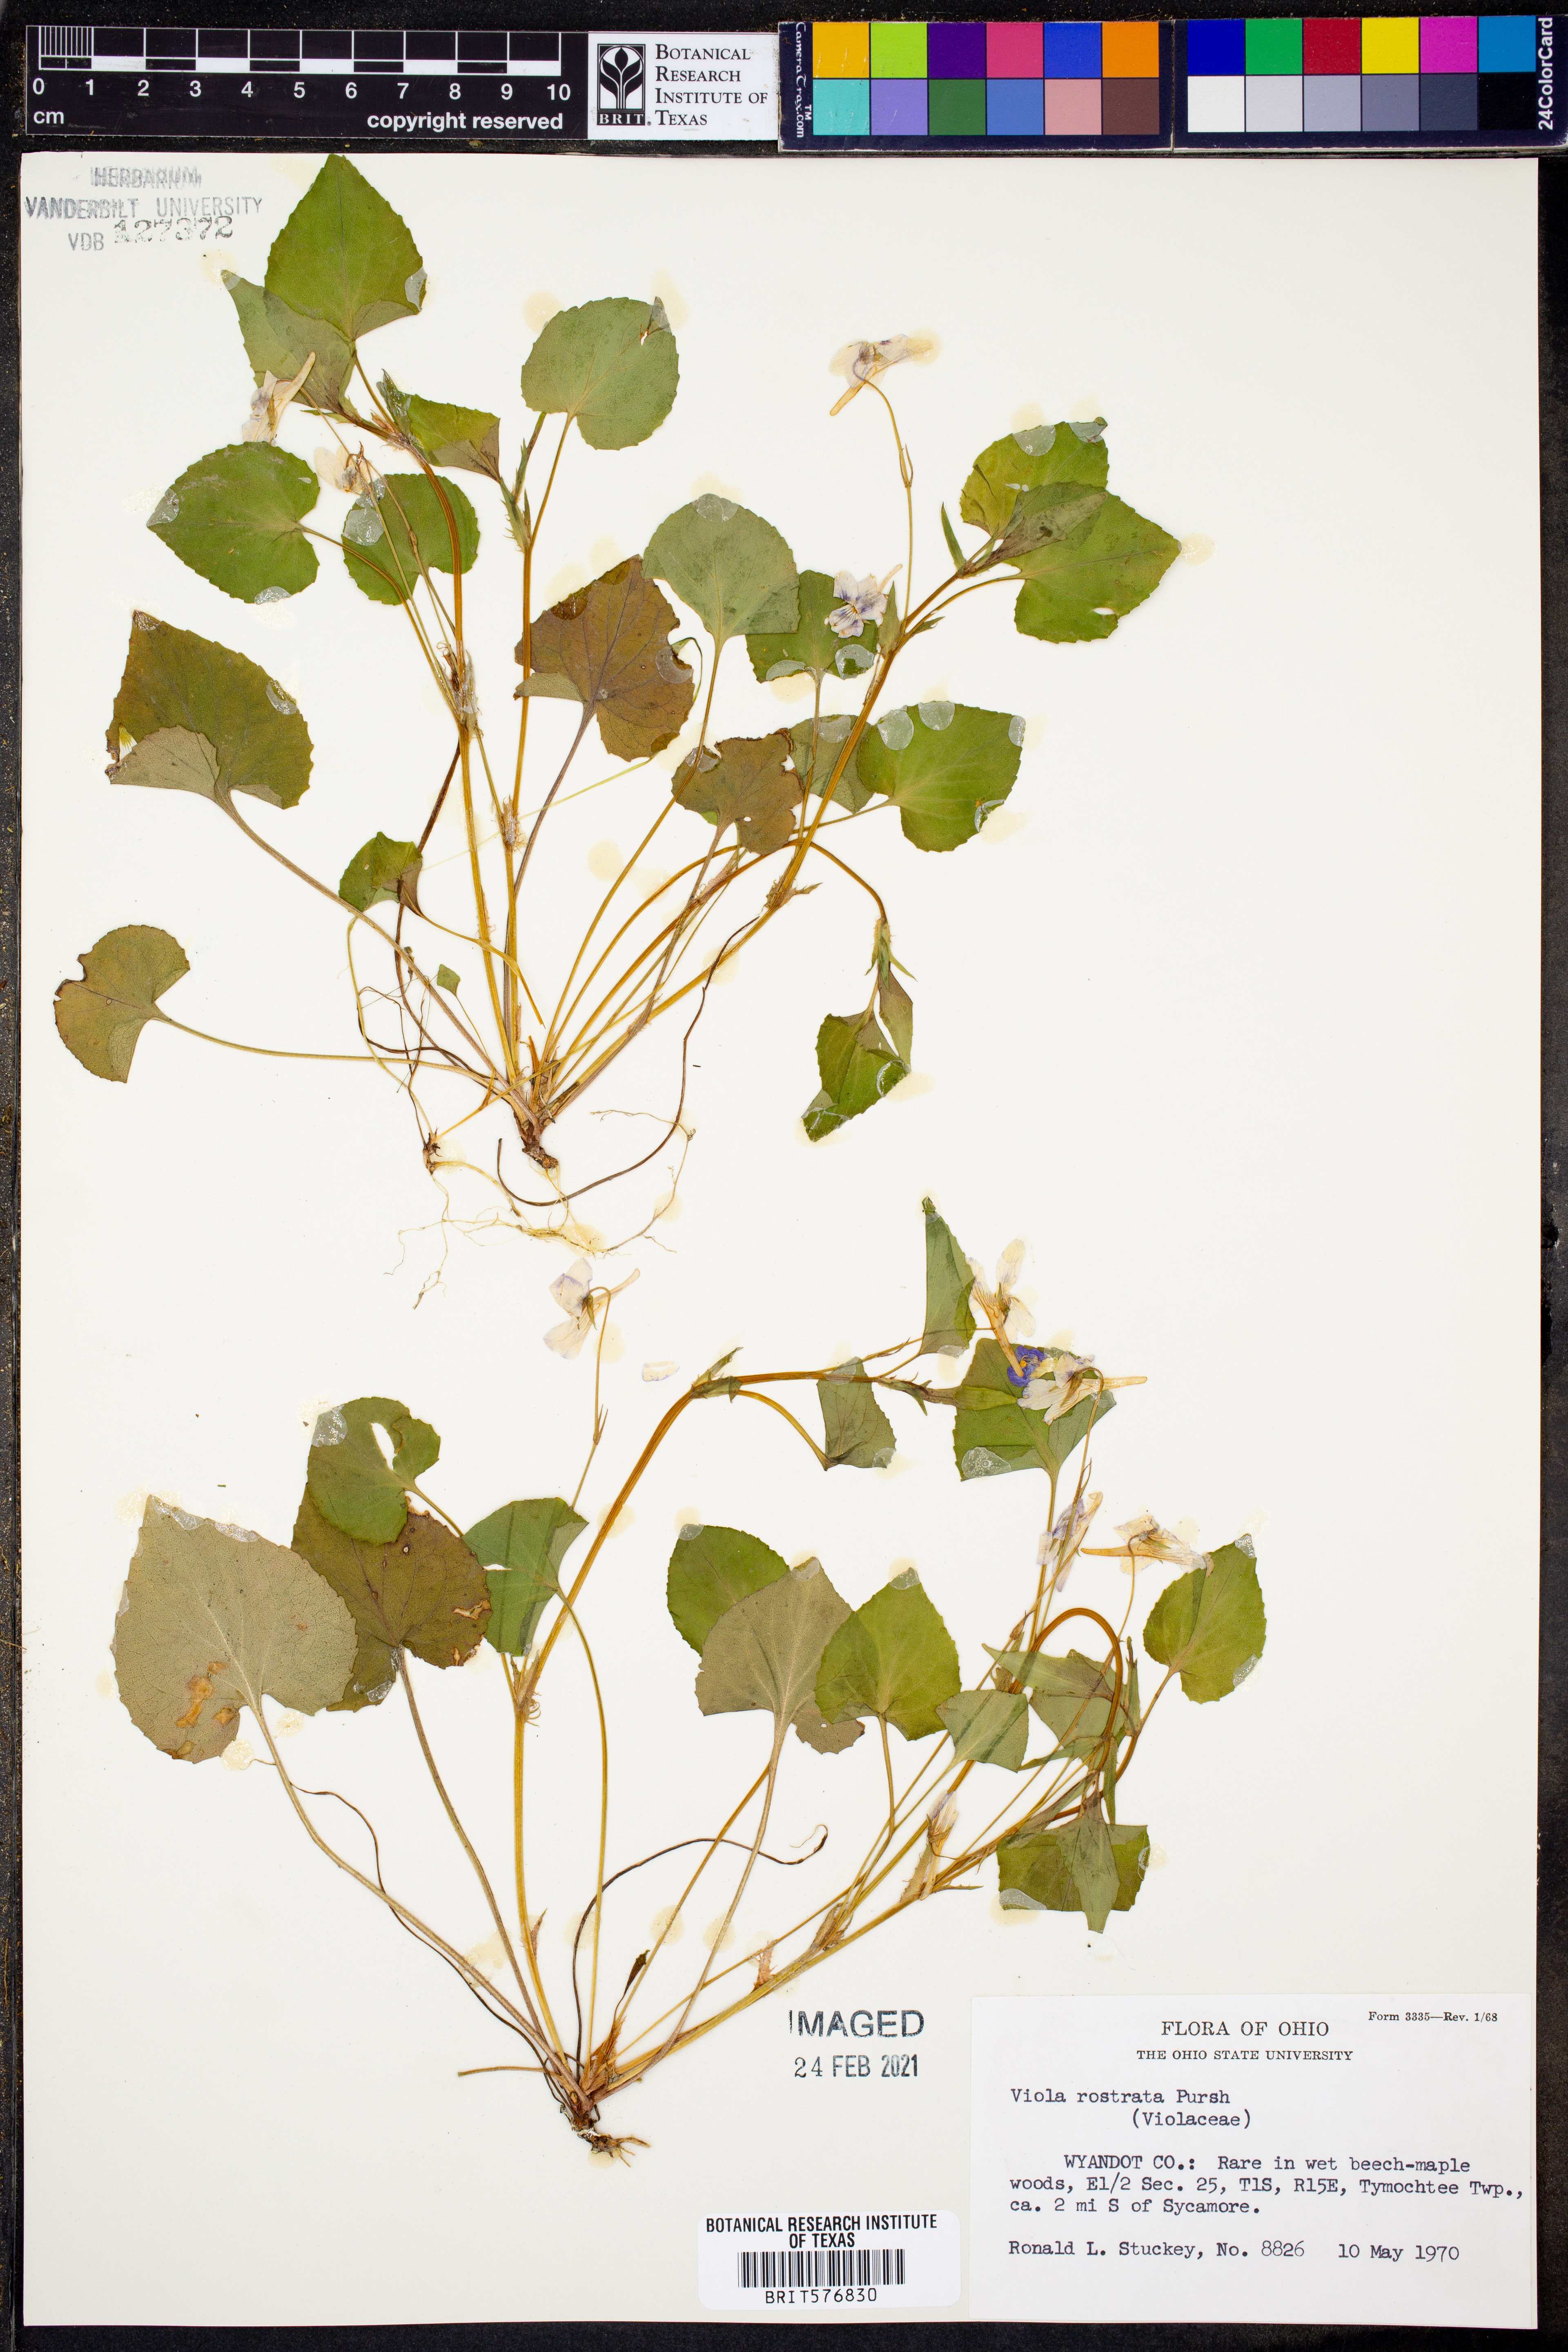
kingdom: Plantae
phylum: Tracheophyta
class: Magnoliopsida
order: Malpighiales
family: Violaceae
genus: Viola
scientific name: Viola rostrata
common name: Long-spur violet
